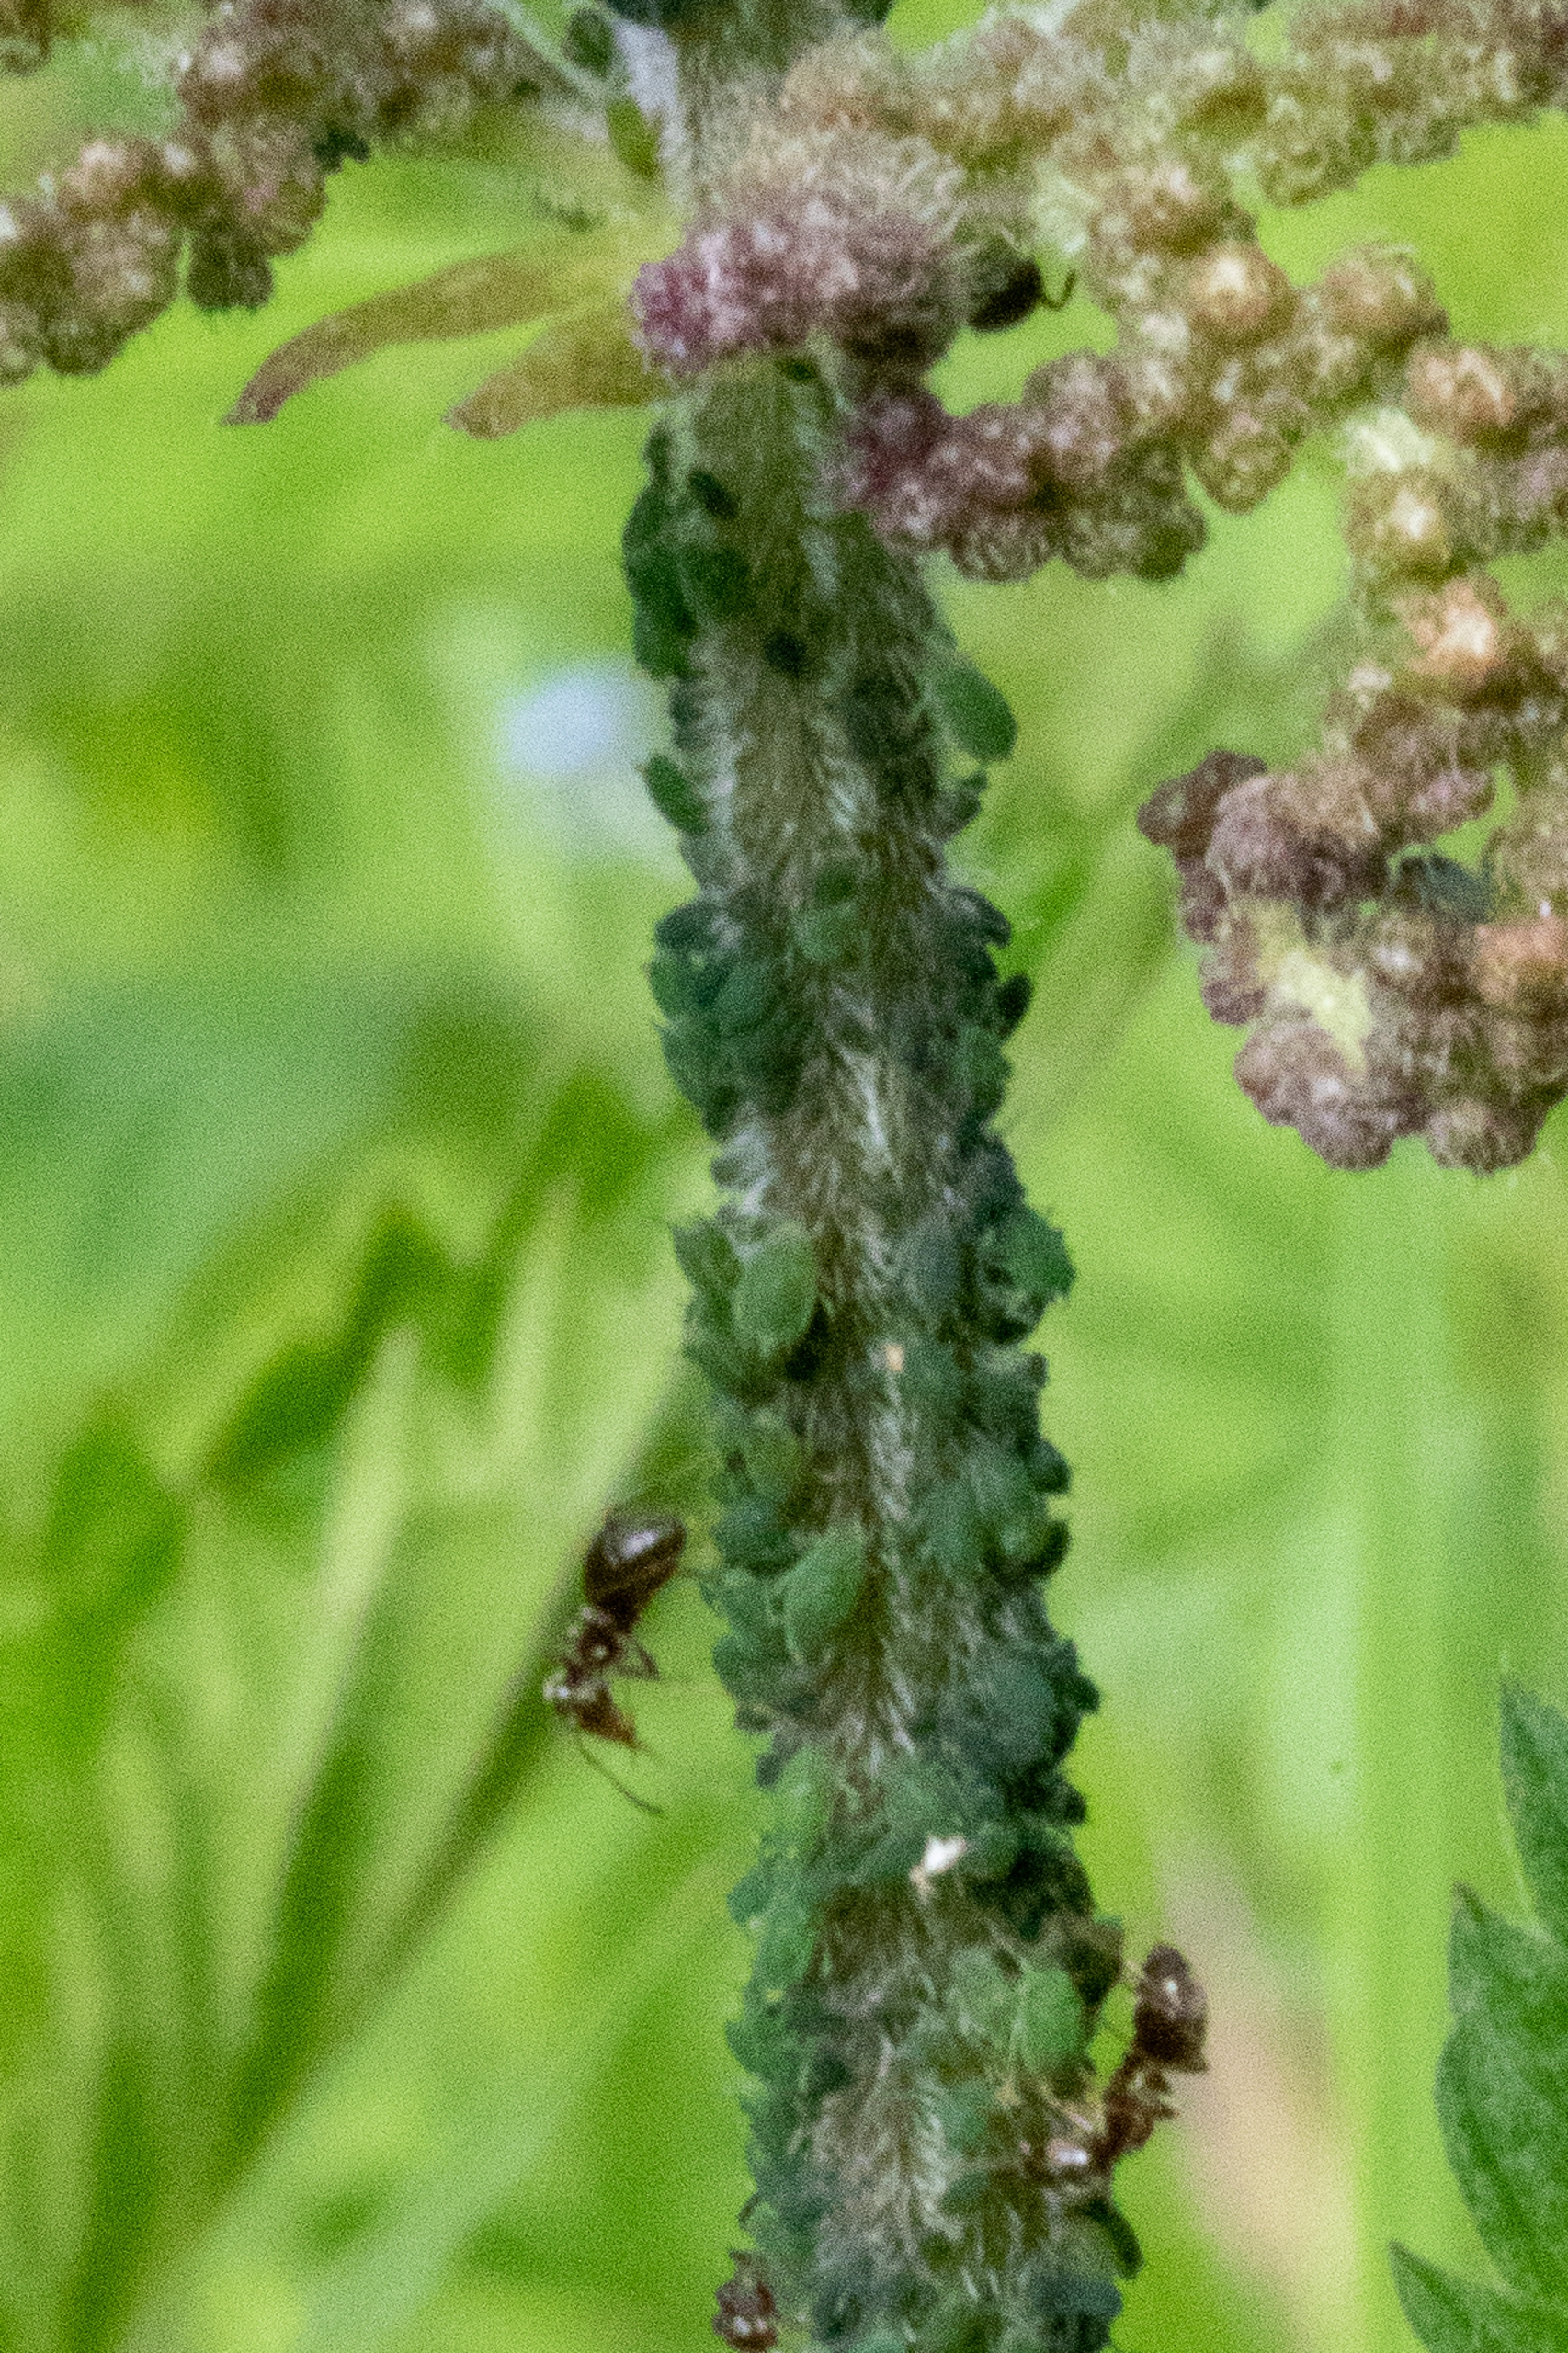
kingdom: Animalia
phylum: Arthropoda
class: Insecta
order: Hemiptera
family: Aphididae
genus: Aphis
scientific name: Aphis urticata
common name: Lille nældebladlus
